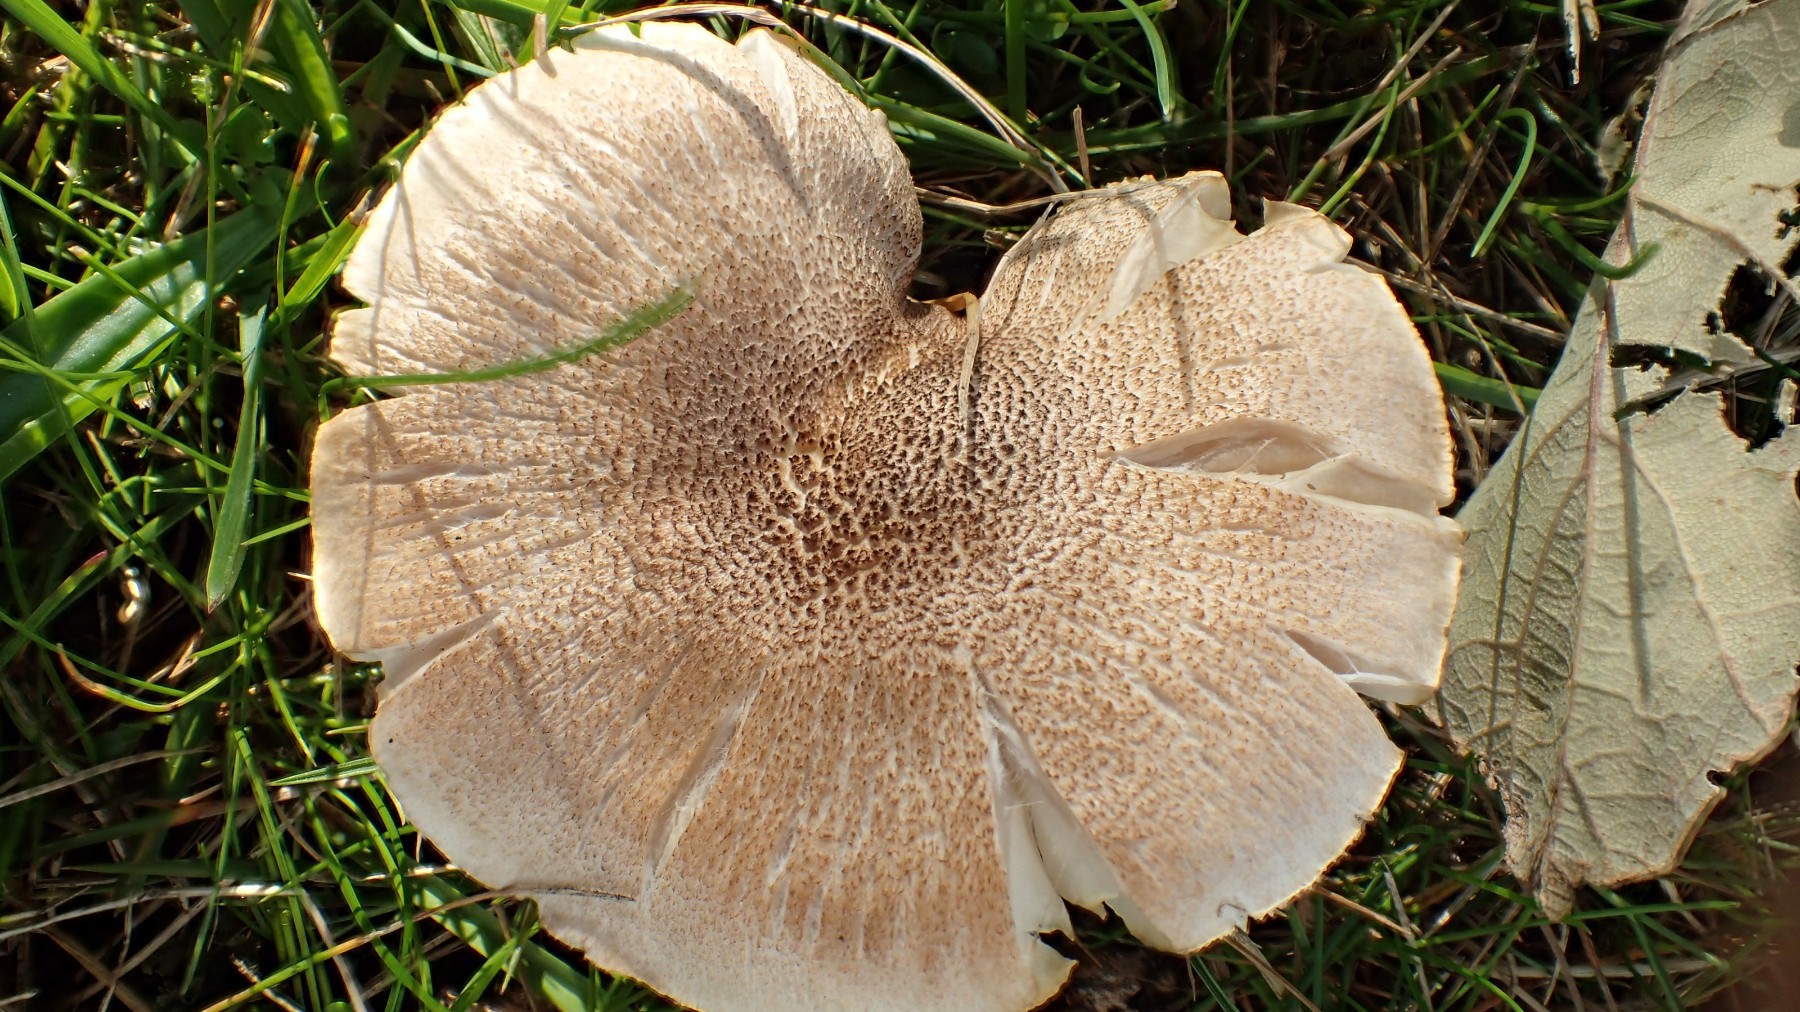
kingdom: Fungi
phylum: Basidiomycota
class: Agaricomycetes
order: Agaricales
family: Tricholomataceae
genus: Tricholoma
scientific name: Tricholoma scalpturatum
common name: gulplettet ridderhat
